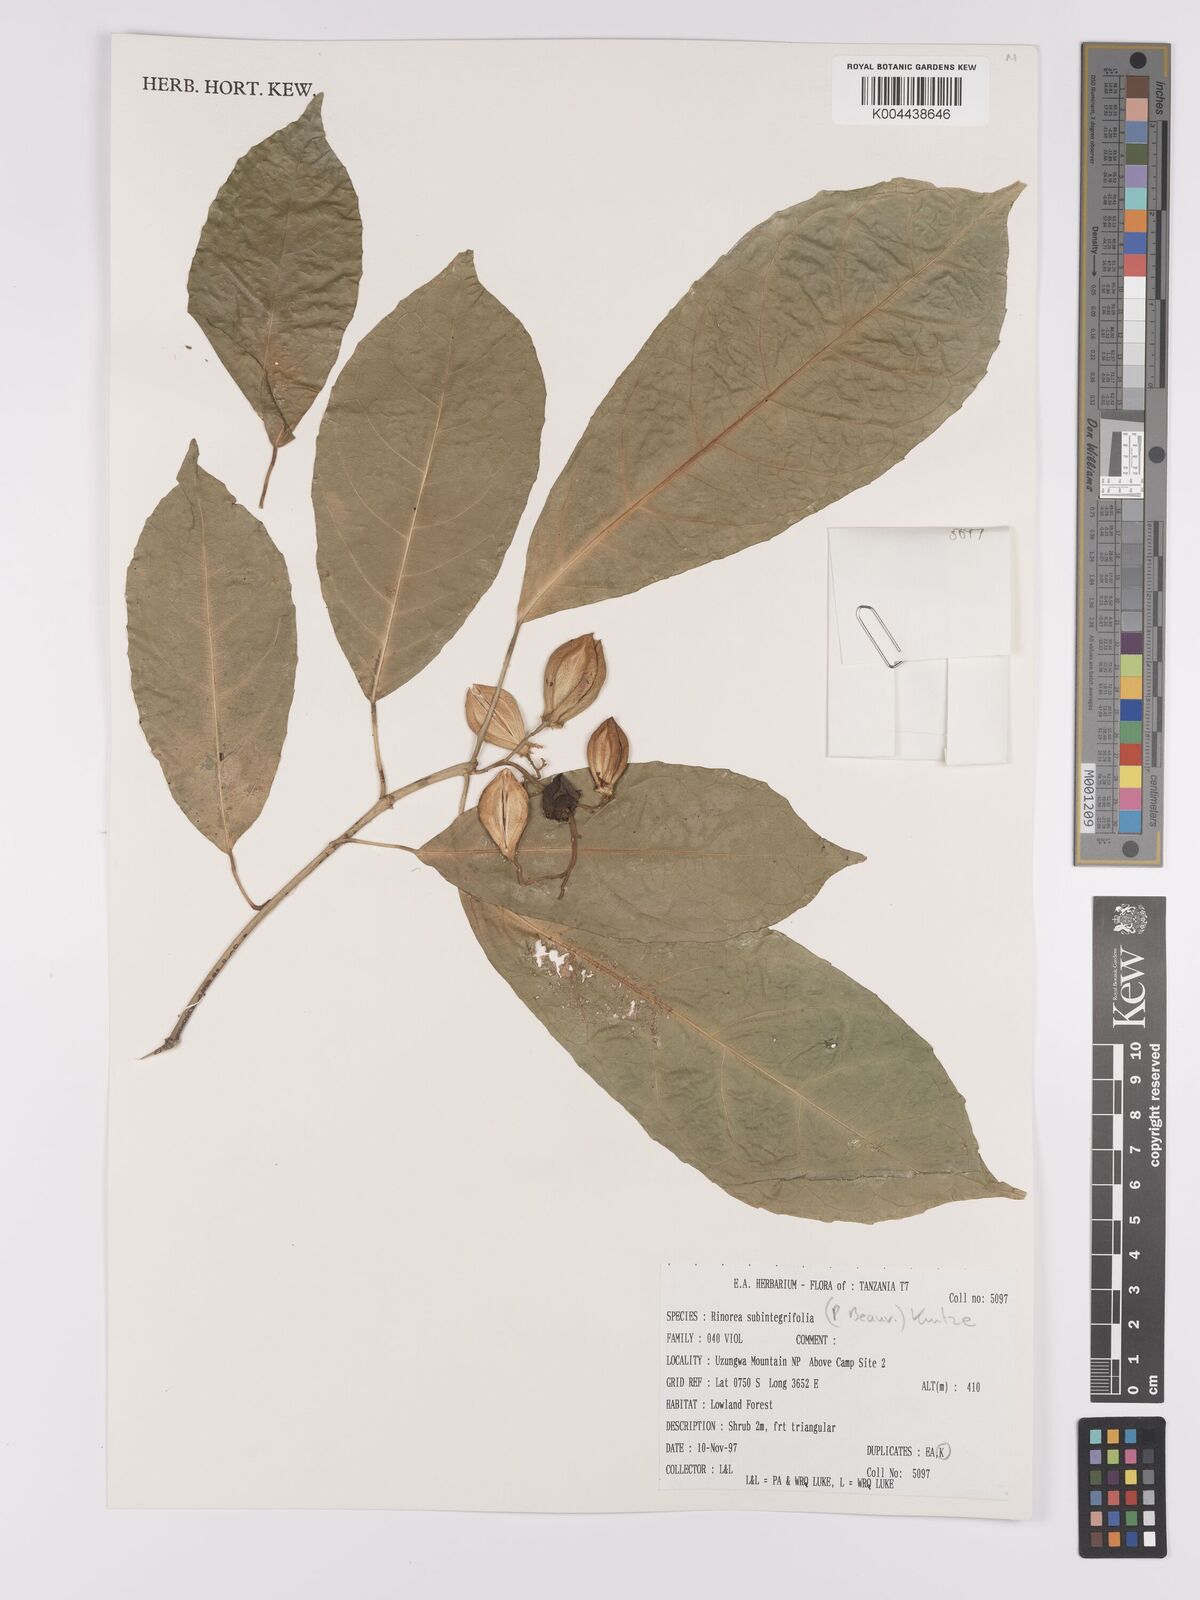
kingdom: Plantae
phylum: Tracheophyta
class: Magnoliopsida
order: Apiales
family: Pittosporaceae
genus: Marianthus
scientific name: Marianthus coeruleopunctatus
